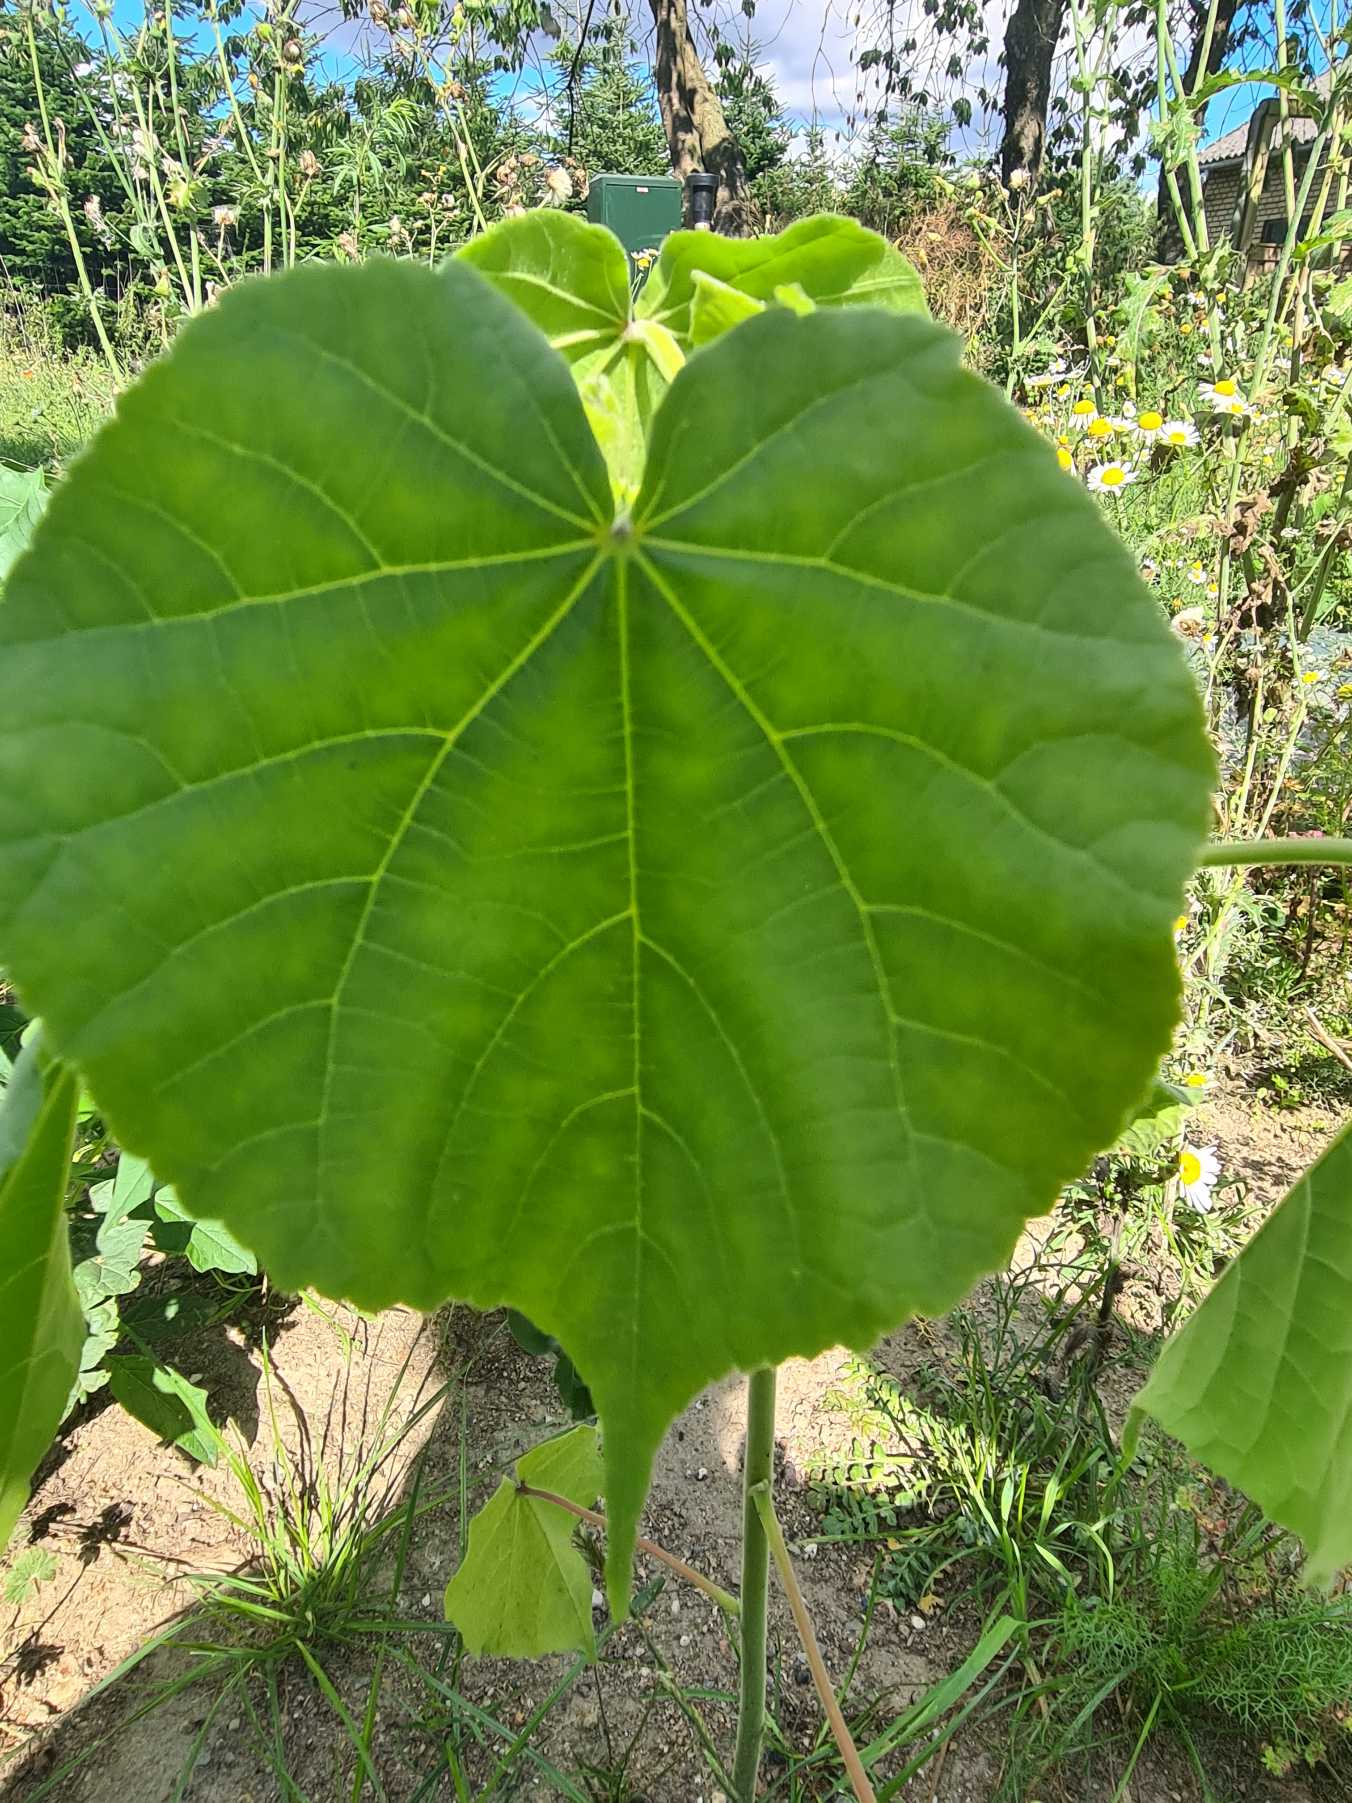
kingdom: Plantae
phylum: Tracheophyta
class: Magnoliopsida
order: Malvales
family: Malvaceae
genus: Abutilon
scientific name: Abutilon theophrasti
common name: Kinajute
